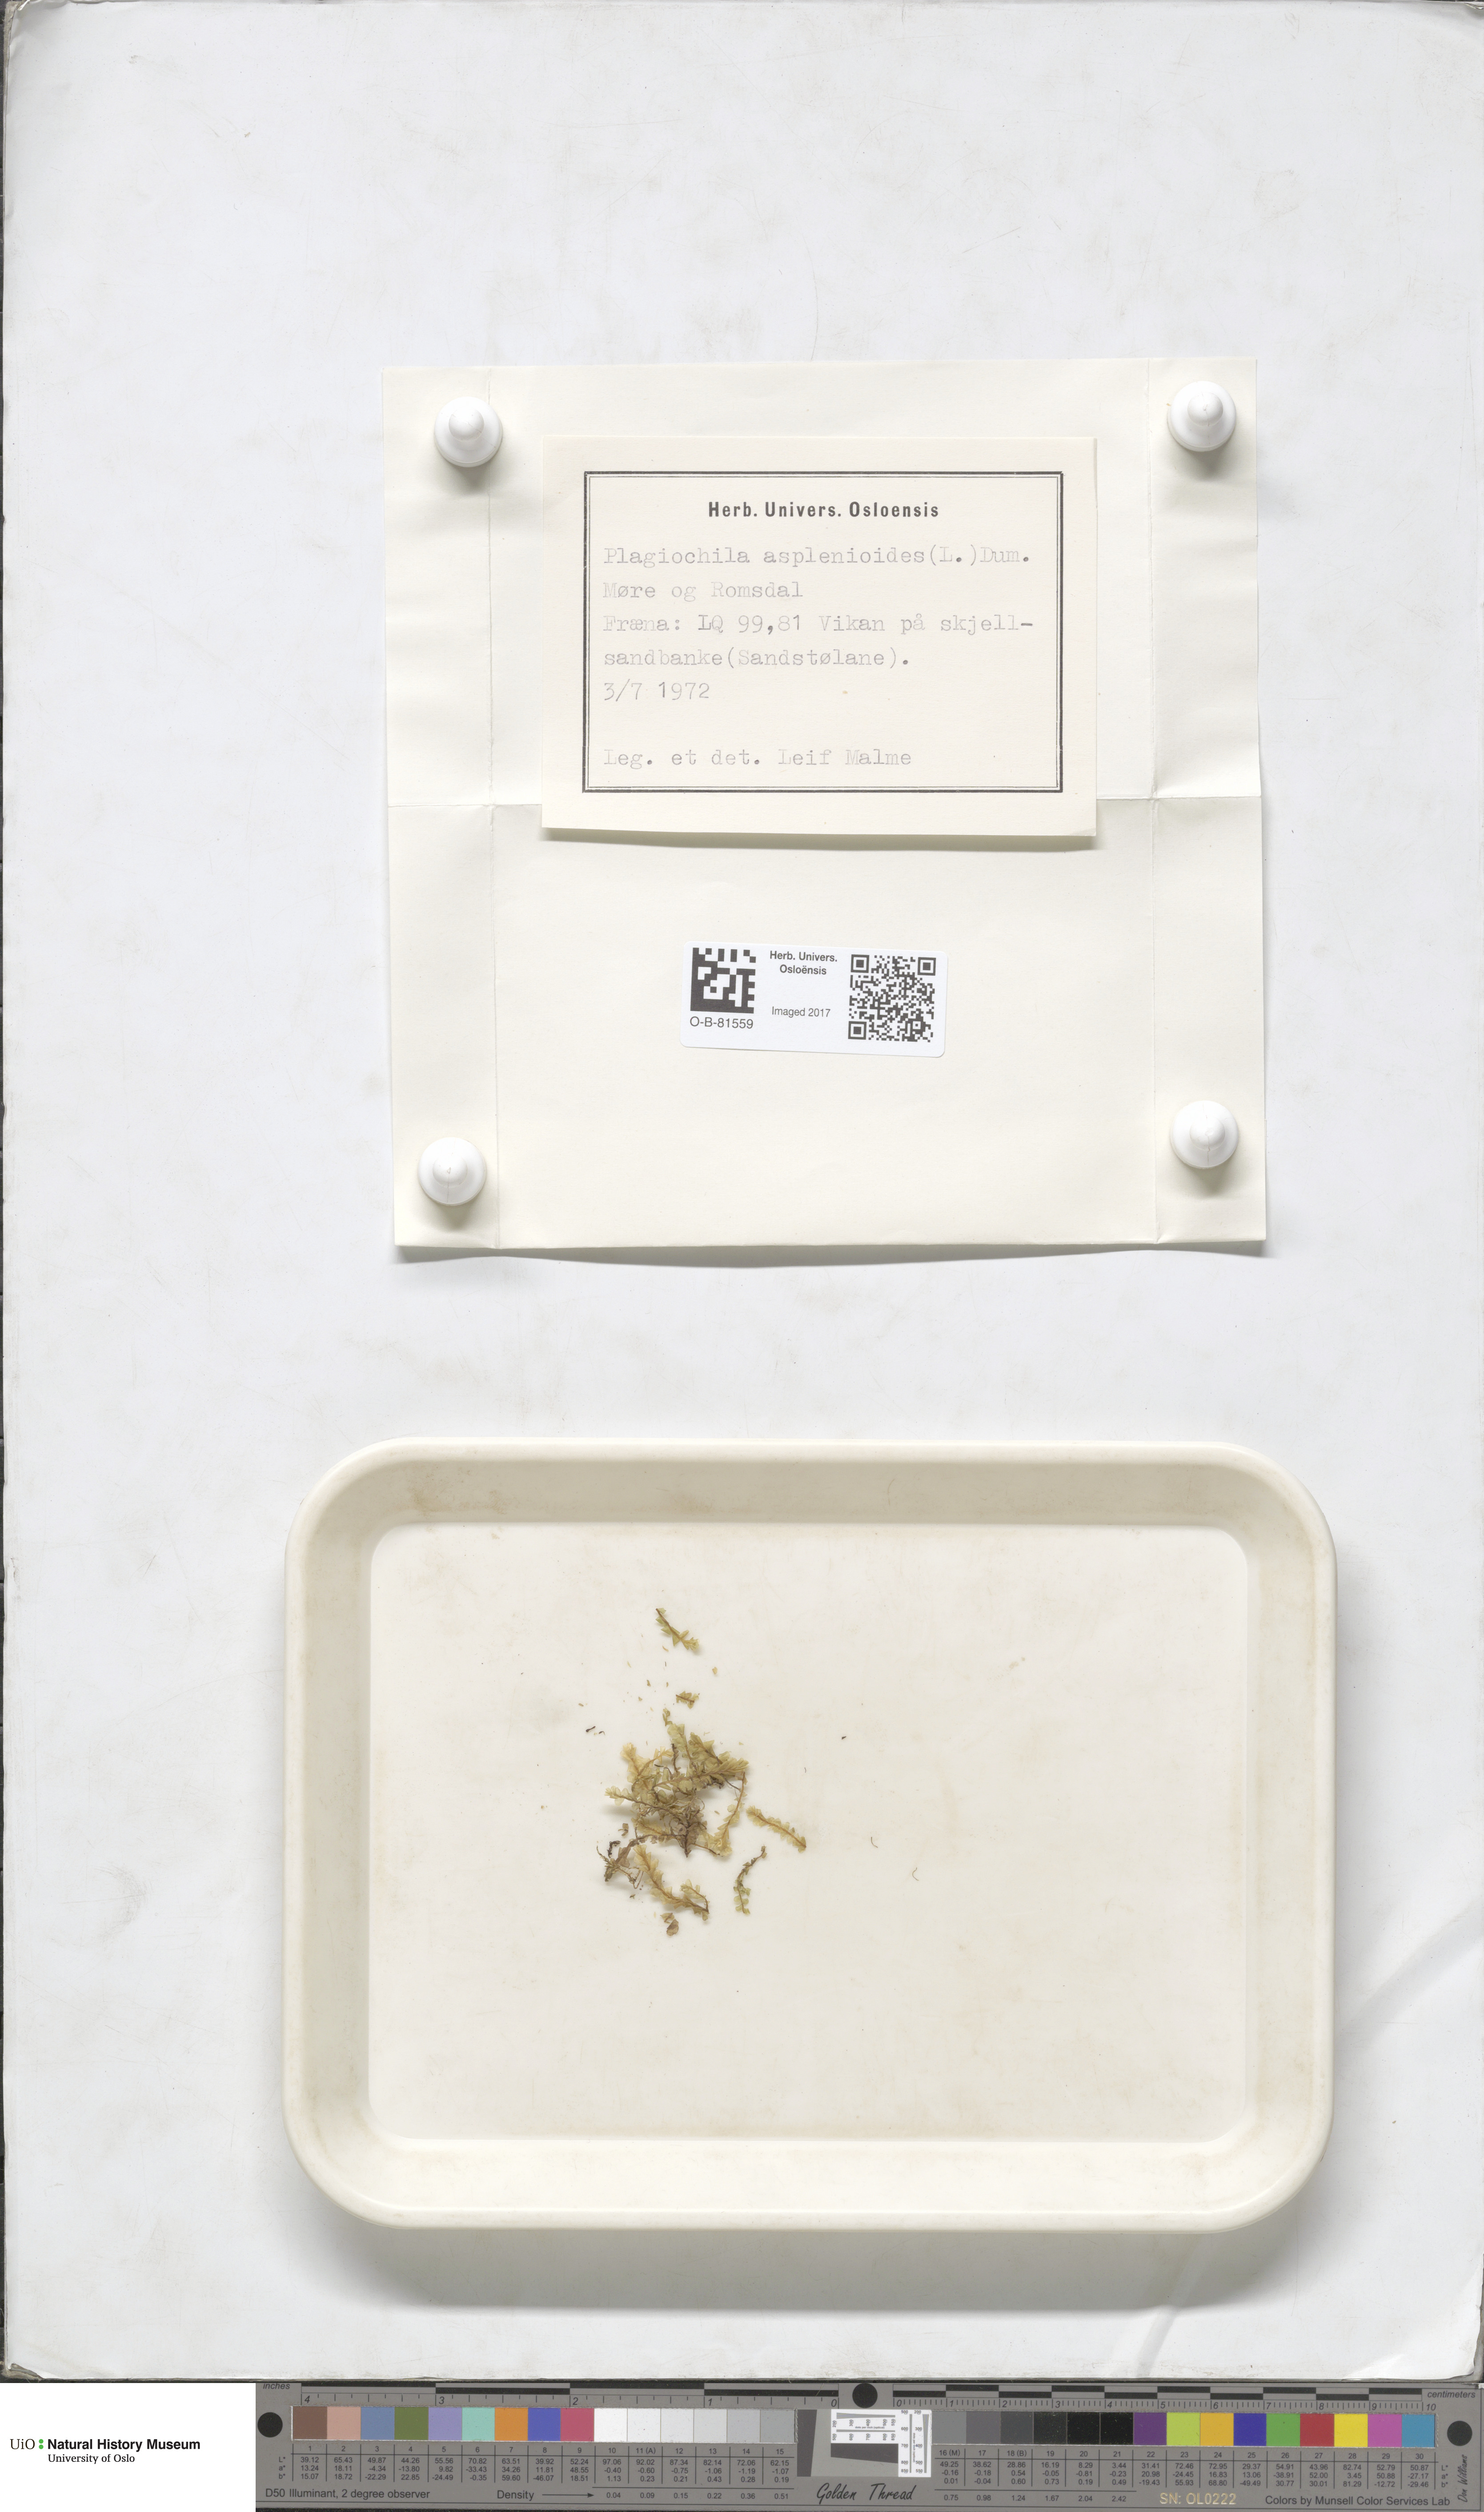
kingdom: Plantae
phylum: Marchantiophyta
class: Jungermanniopsida
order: Jungermanniales
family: Plagiochilaceae
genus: Plagiochila
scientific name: Plagiochila asplenioides
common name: Greater featherwort
